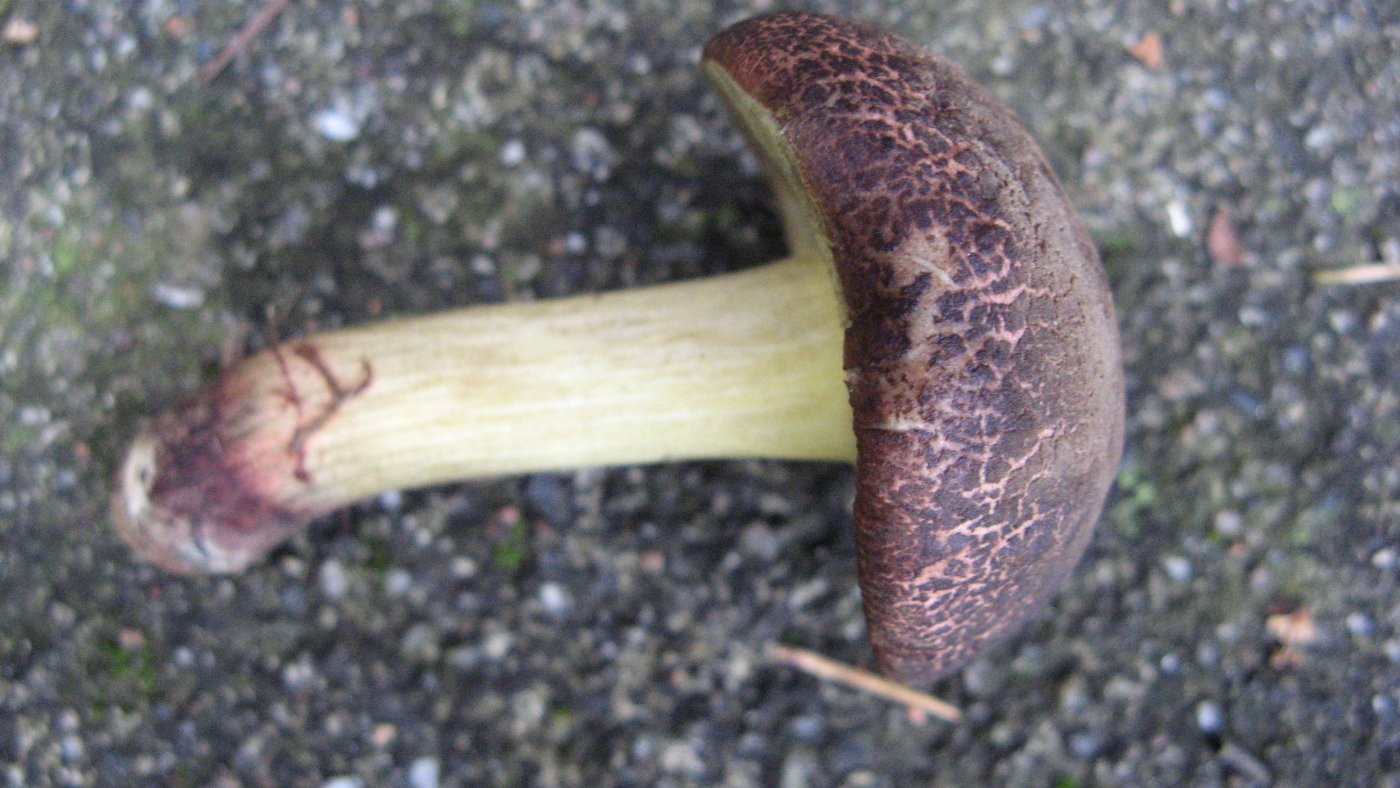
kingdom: Fungi
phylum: Basidiomycota
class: Agaricomycetes
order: Boletales
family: Boletaceae
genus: Xerocomellus
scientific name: Xerocomellus cisalpinus
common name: finsprukken rørhat
